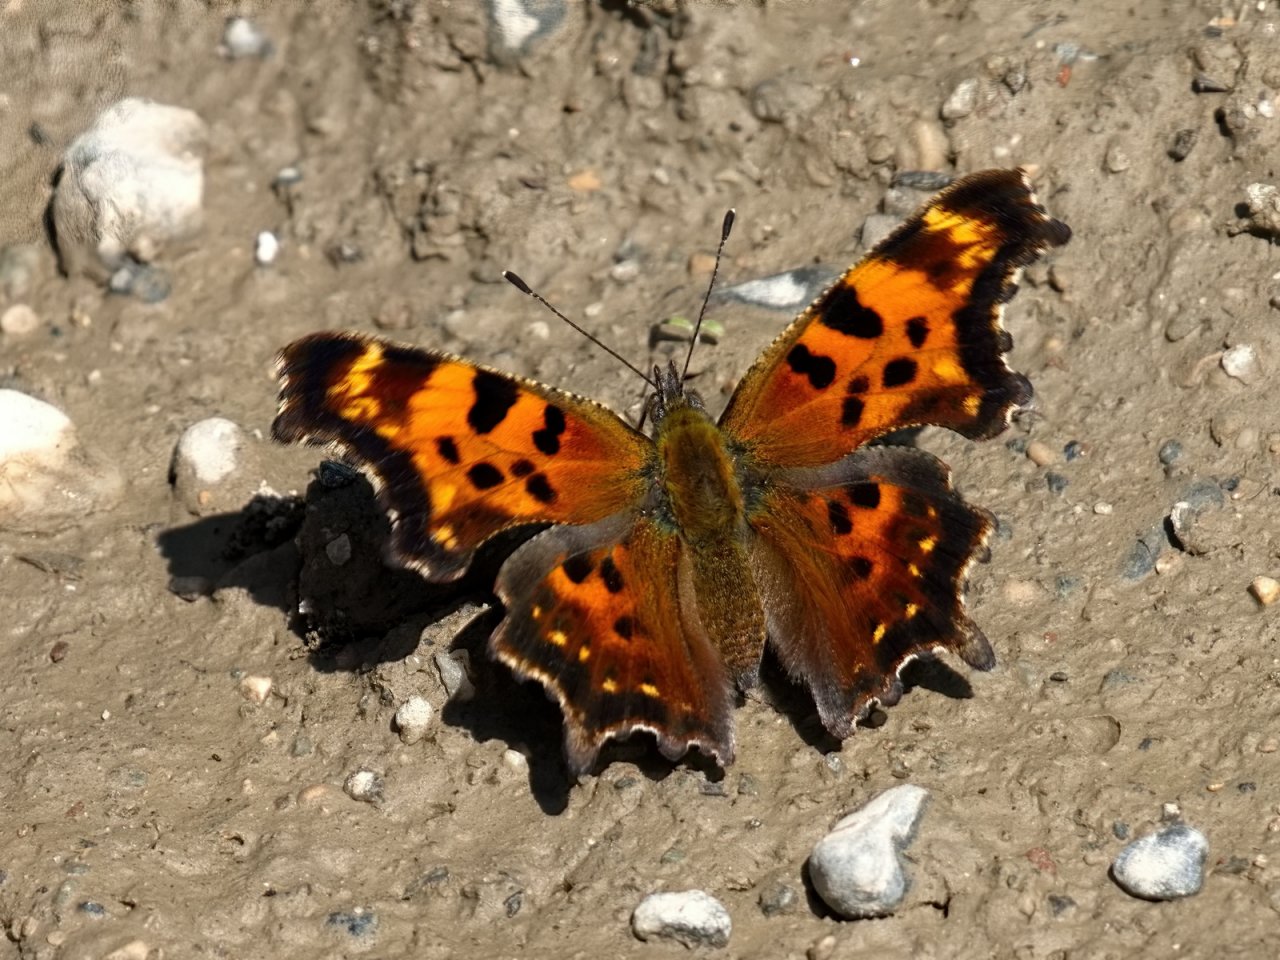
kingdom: Animalia
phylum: Arthropoda
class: Insecta
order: Lepidoptera
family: Nymphalidae
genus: Polygonia
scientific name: Polygonia faunus
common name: Green Comma
